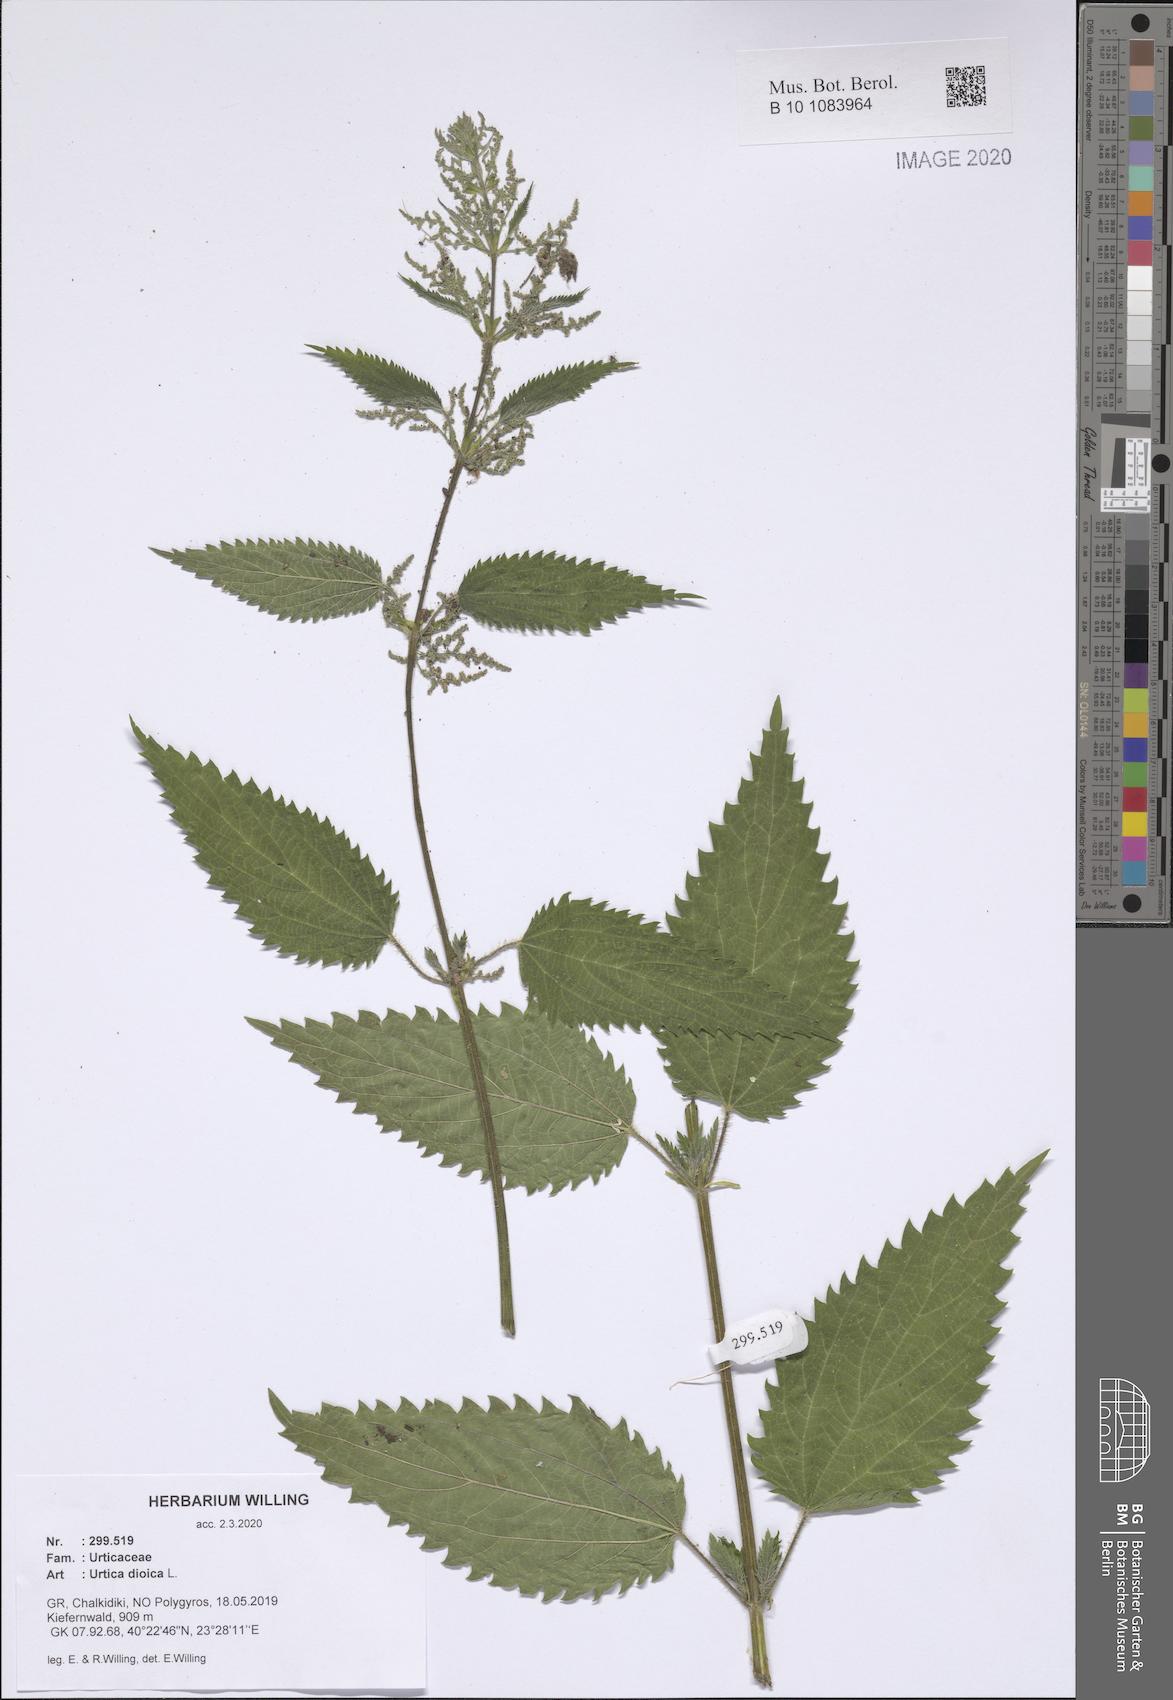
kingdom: Plantae
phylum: Tracheophyta
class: Magnoliopsida
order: Rosales
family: Urticaceae
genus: Urtica
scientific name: Urtica dioica
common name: Common nettle
